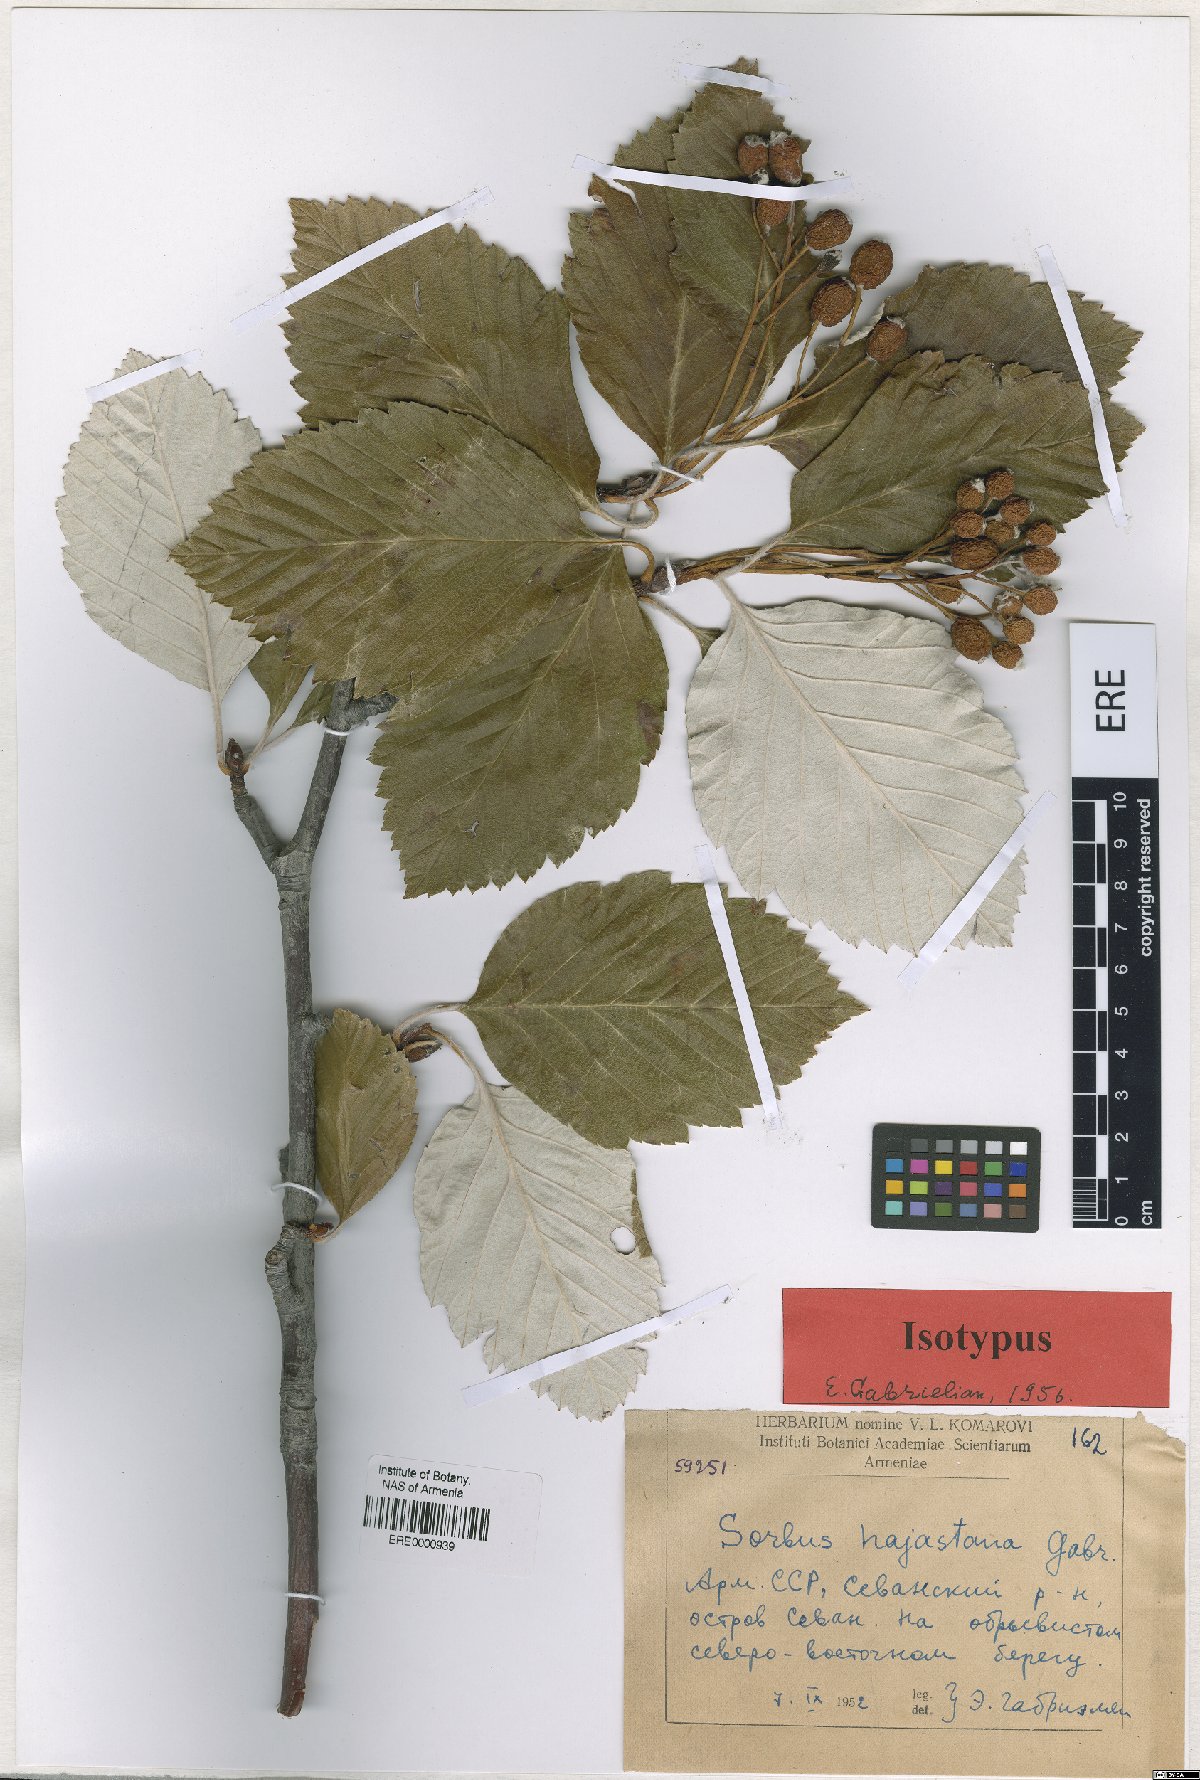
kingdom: Plantae
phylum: Tracheophyta
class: Magnoliopsida
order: Rosales
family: Rosaceae
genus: Sorbus
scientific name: Sorbus hajastana
